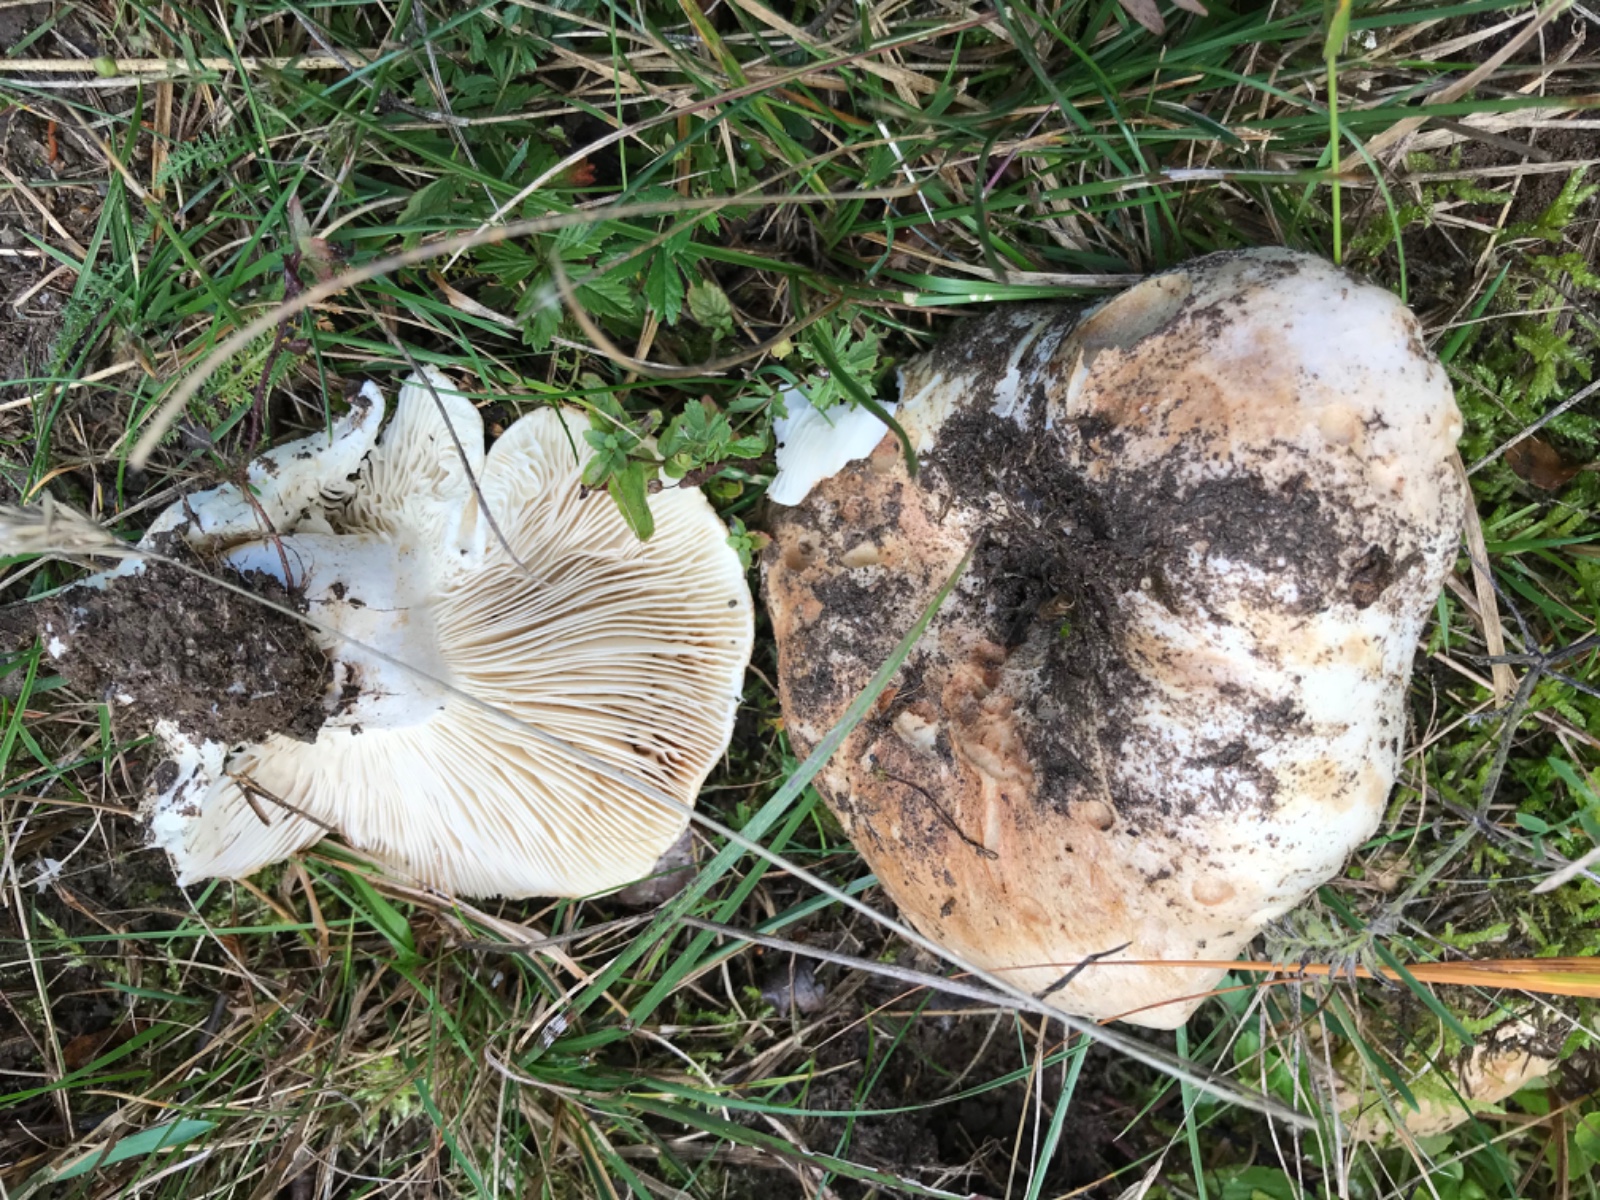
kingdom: Fungi
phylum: Basidiomycota
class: Agaricomycetes
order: Russulales
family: Russulaceae
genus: Russula
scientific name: Russula delica
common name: almindelig tragt-skørhat
